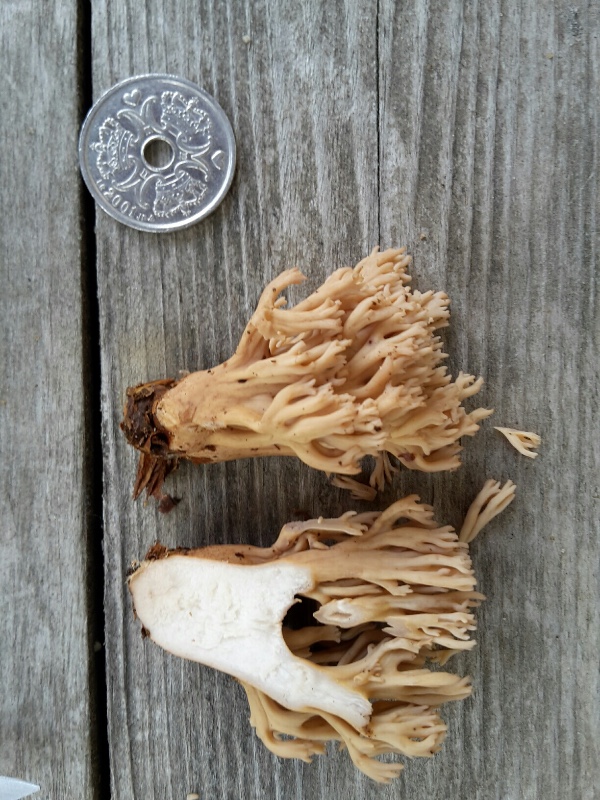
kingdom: Fungi
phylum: Basidiomycota
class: Agaricomycetes
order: Gomphales
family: Gomphaceae
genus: Ramaria
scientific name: Ramaria
